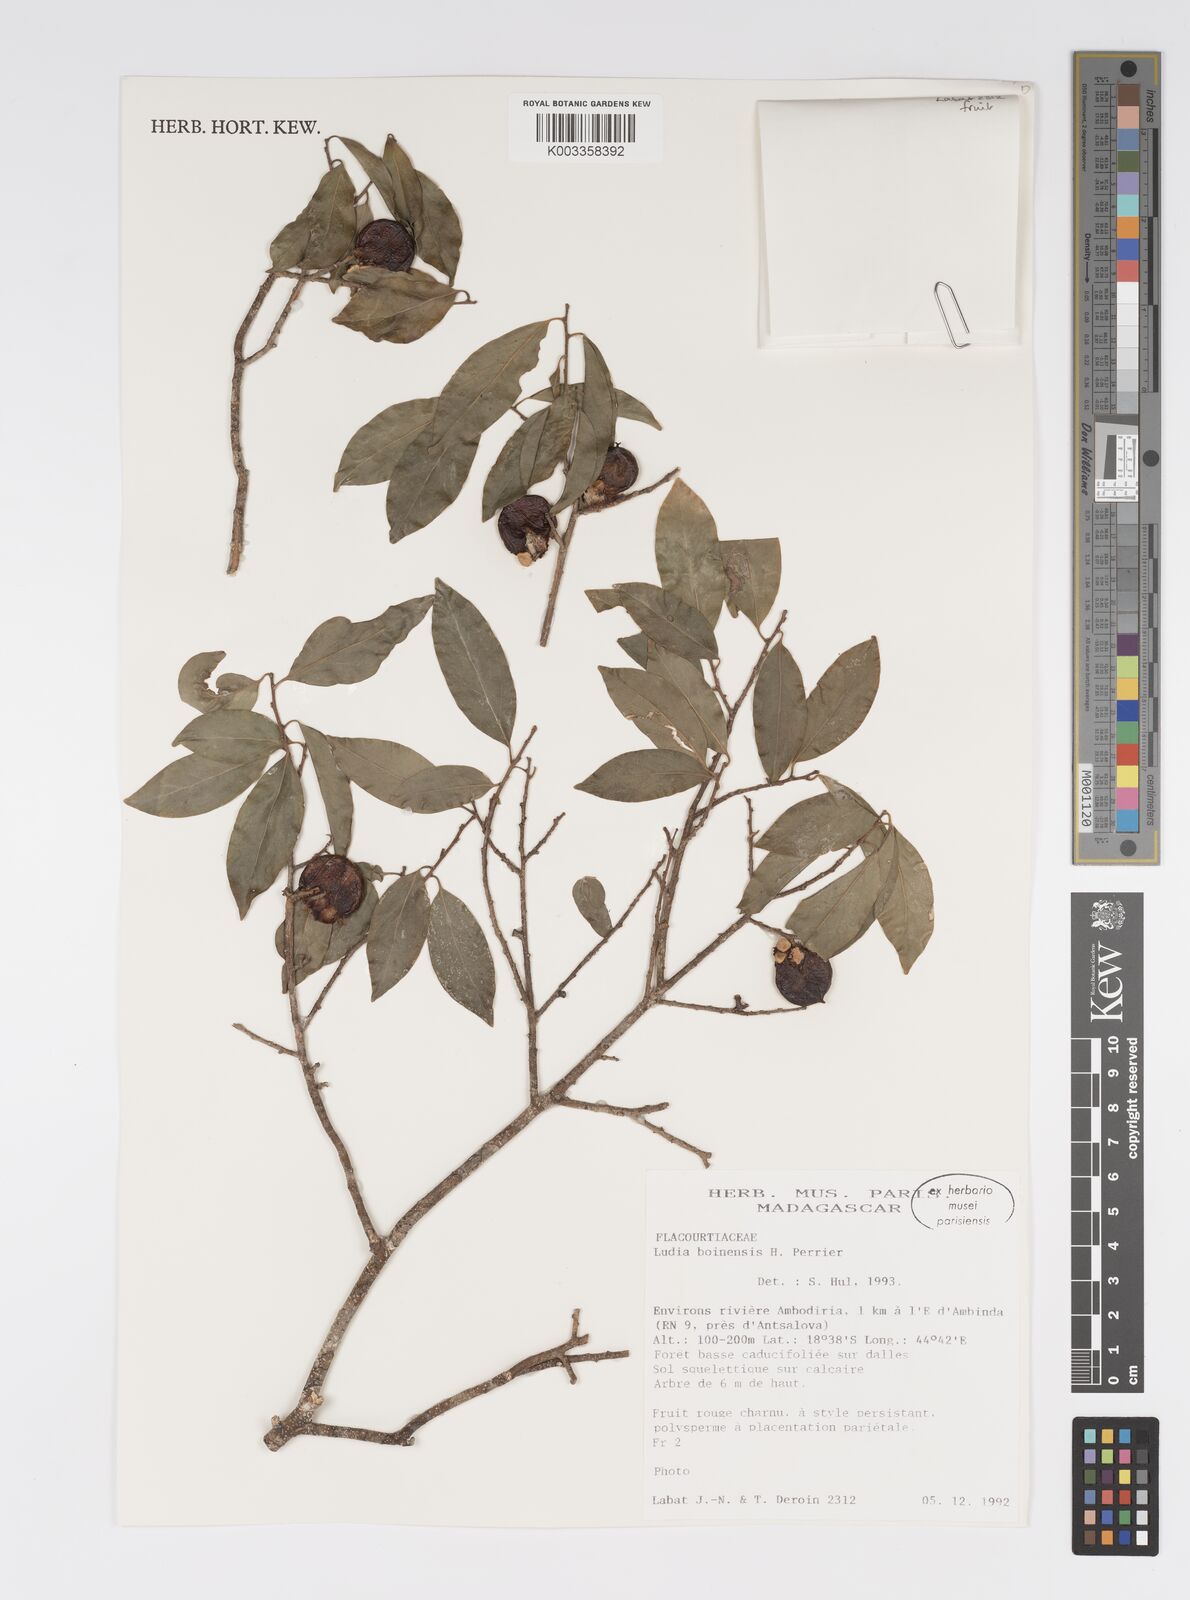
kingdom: Plantae
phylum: Tracheophyta
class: Magnoliopsida
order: Malpighiales
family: Salicaceae
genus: Ludia
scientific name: Ludia boinensis
